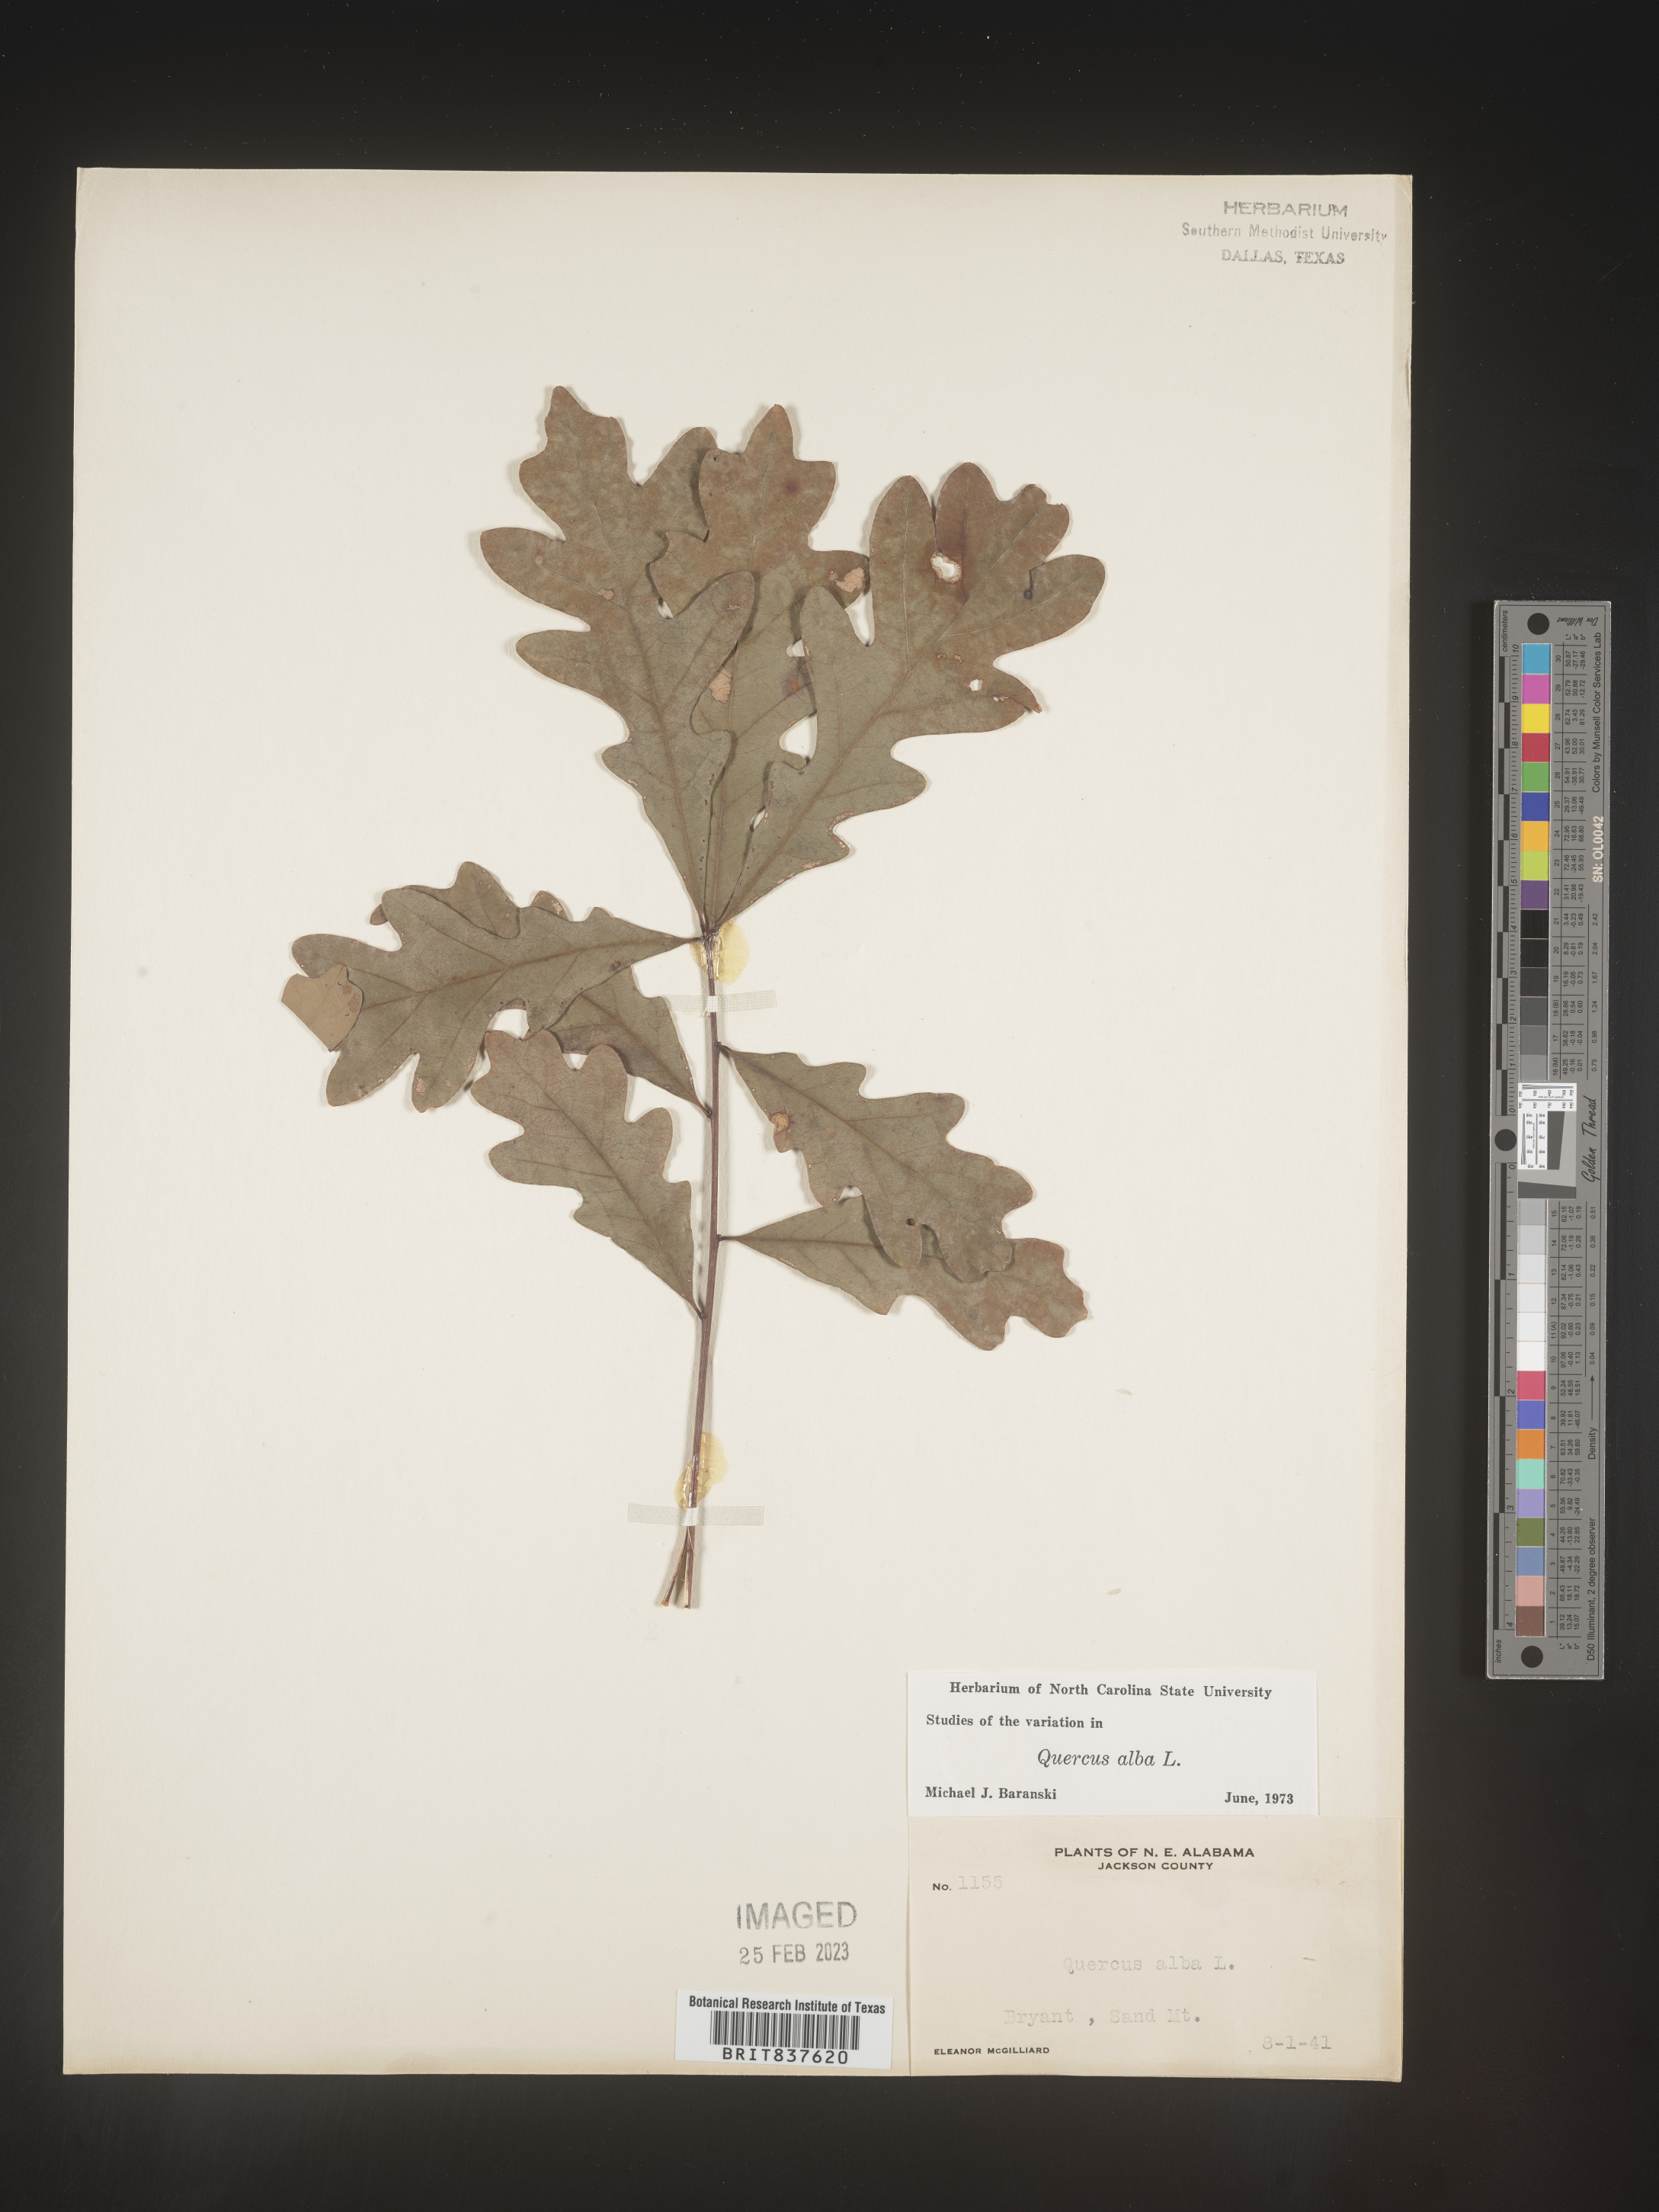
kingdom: Plantae
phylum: Tracheophyta
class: Magnoliopsida
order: Fagales
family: Fagaceae
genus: Quercus
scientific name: Quercus alba
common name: White oak
